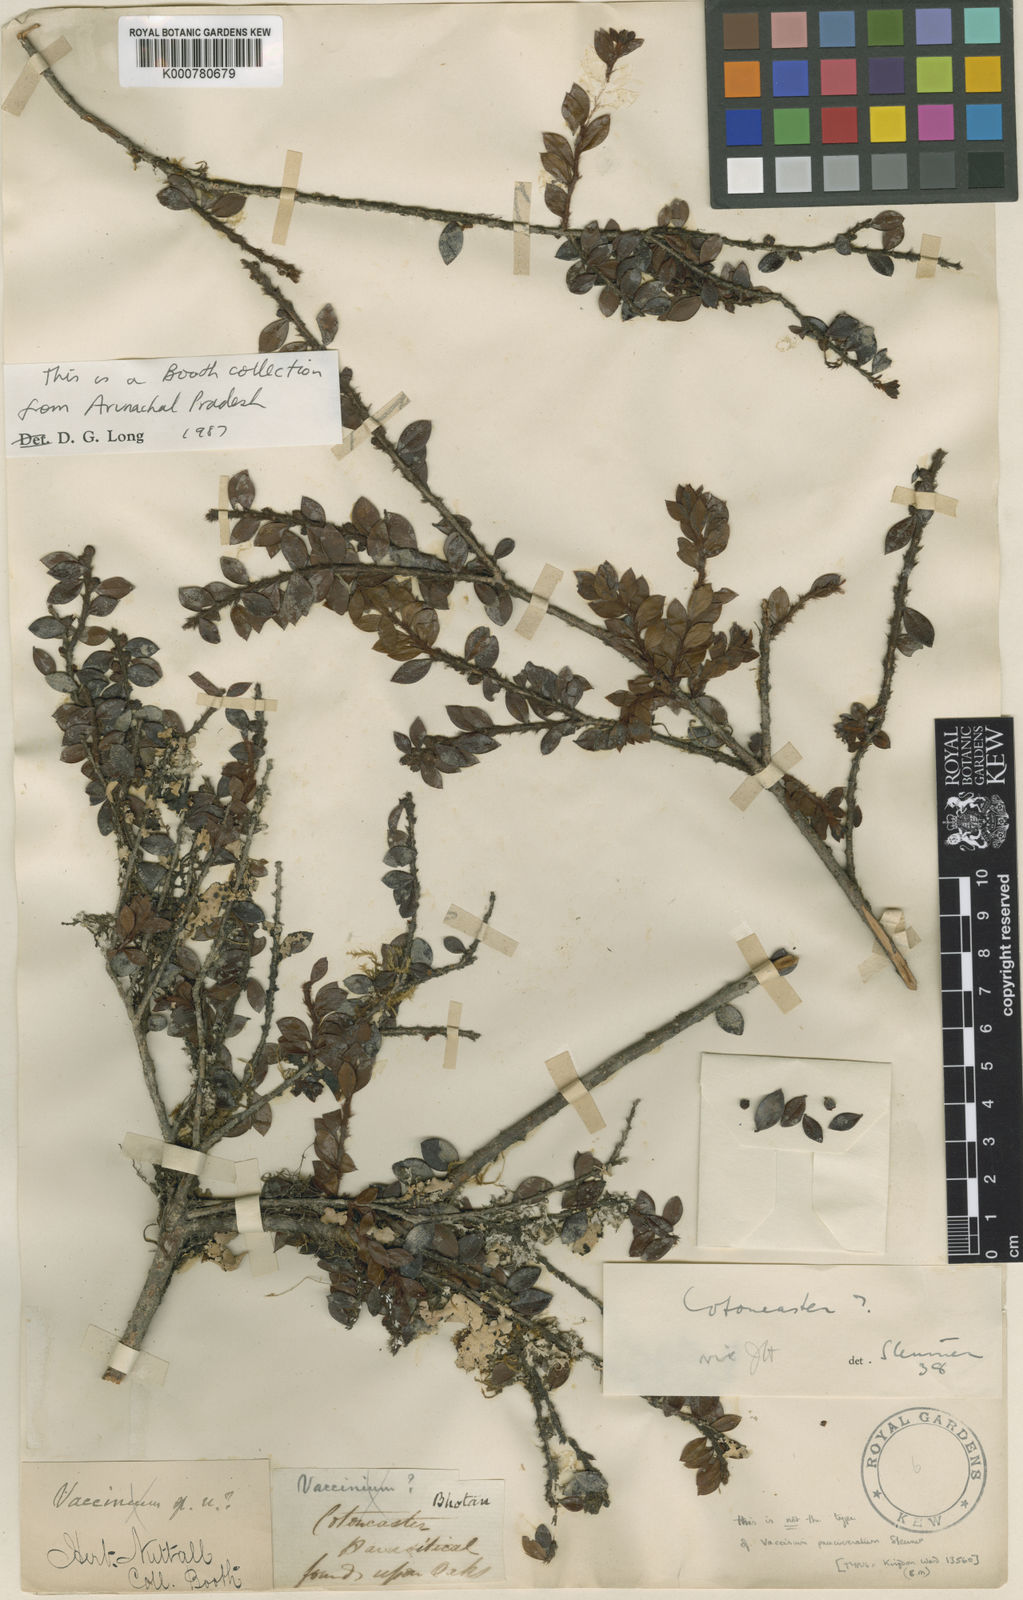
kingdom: Plantae
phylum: Tracheophyta
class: Magnoliopsida
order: Ericales
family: Ericaceae
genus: Vaccinium
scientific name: Vaccinium paucicrenatum
